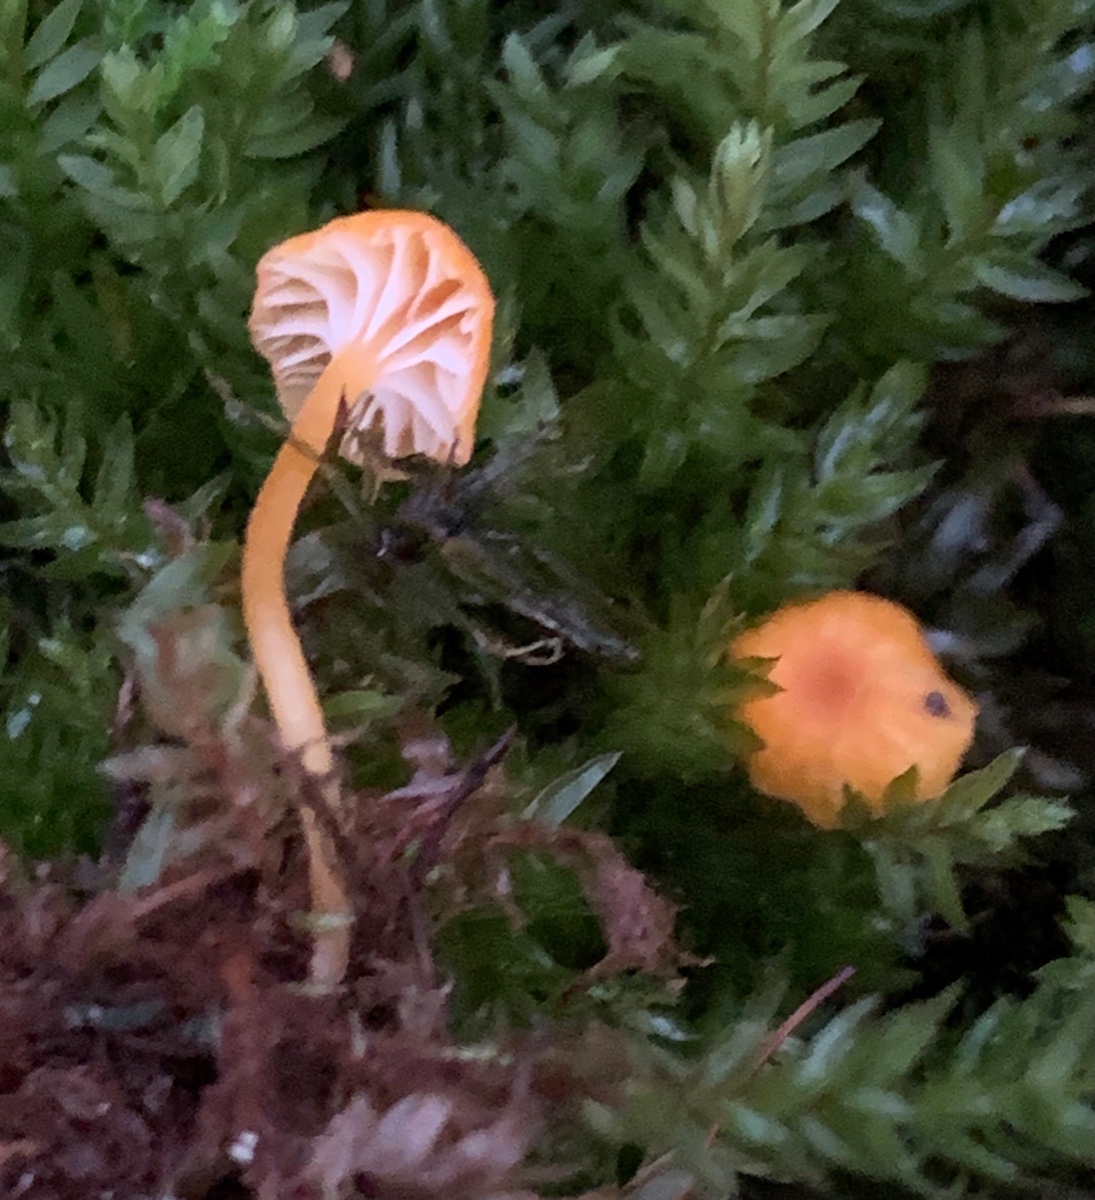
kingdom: Fungi
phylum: Basidiomycota
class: Agaricomycetes
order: Hymenochaetales
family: Rickenellaceae
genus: Rickenella
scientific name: Rickenella fibula
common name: orange mosnavlehat
